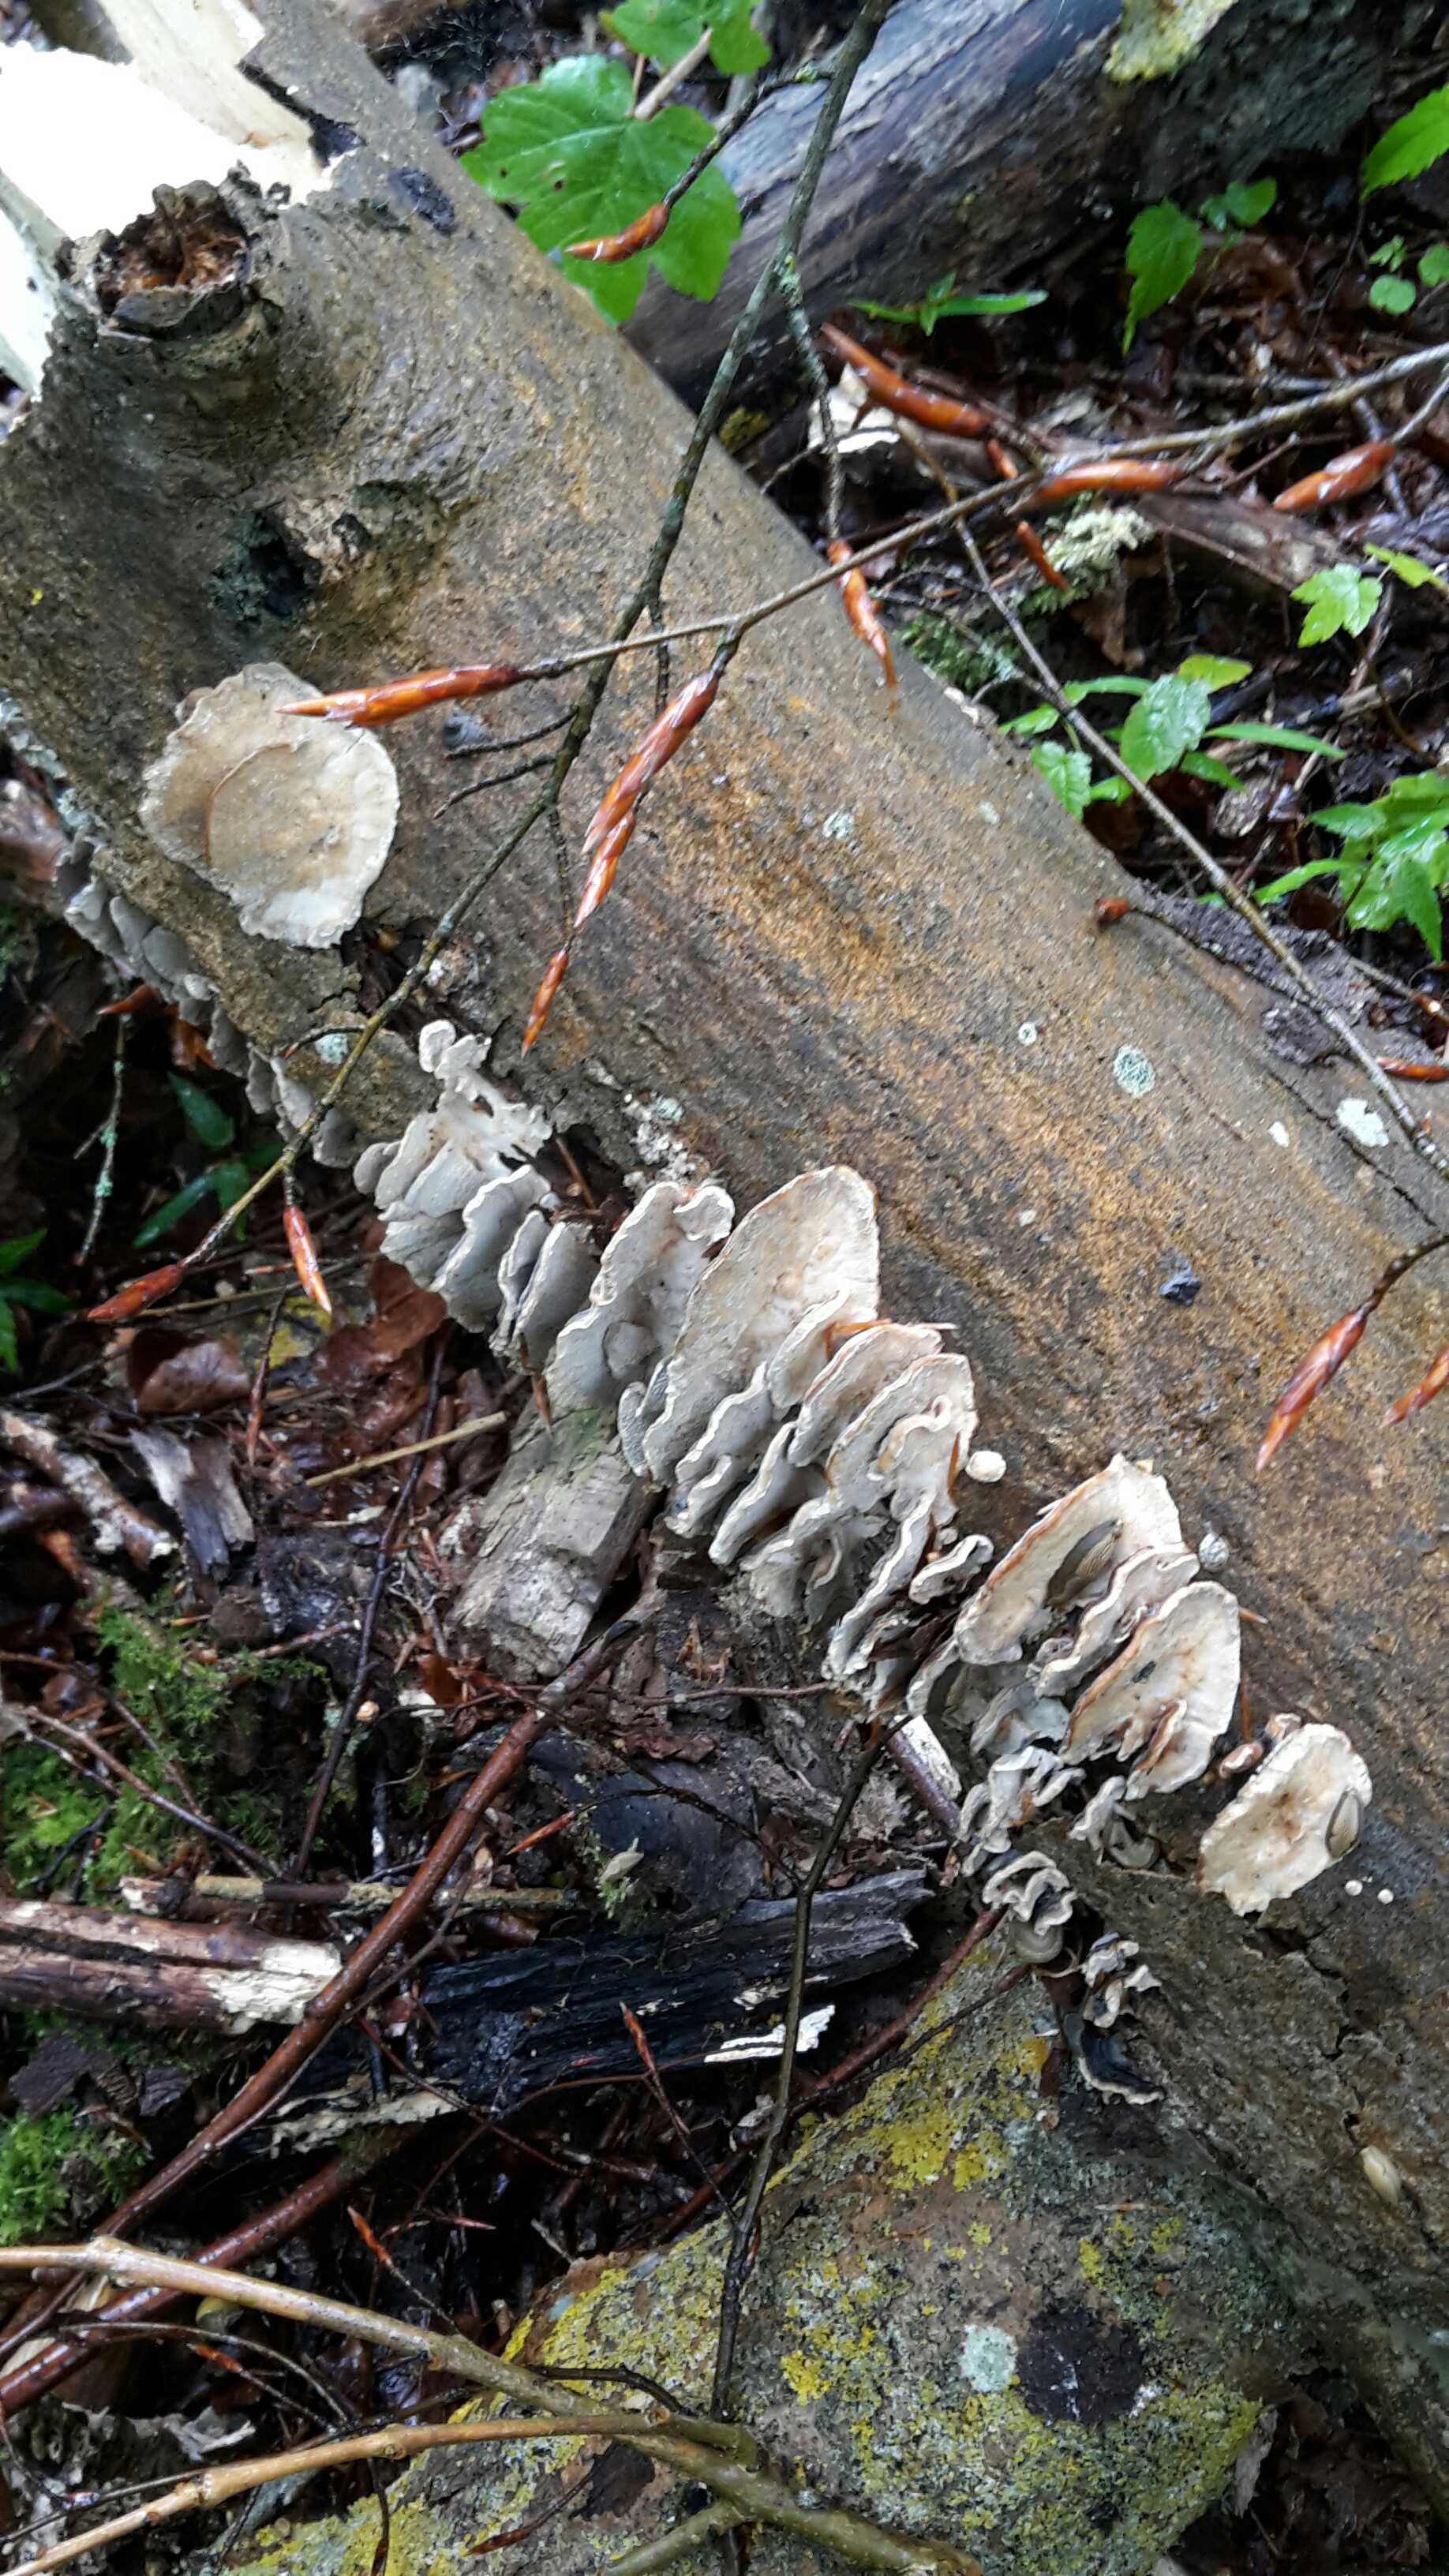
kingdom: Fungi
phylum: Basidiomycota
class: Agaricomycetes
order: Polyporales
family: Polyporaceae
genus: Trametes
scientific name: Trametes versicolor
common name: broget læderporesvamp
